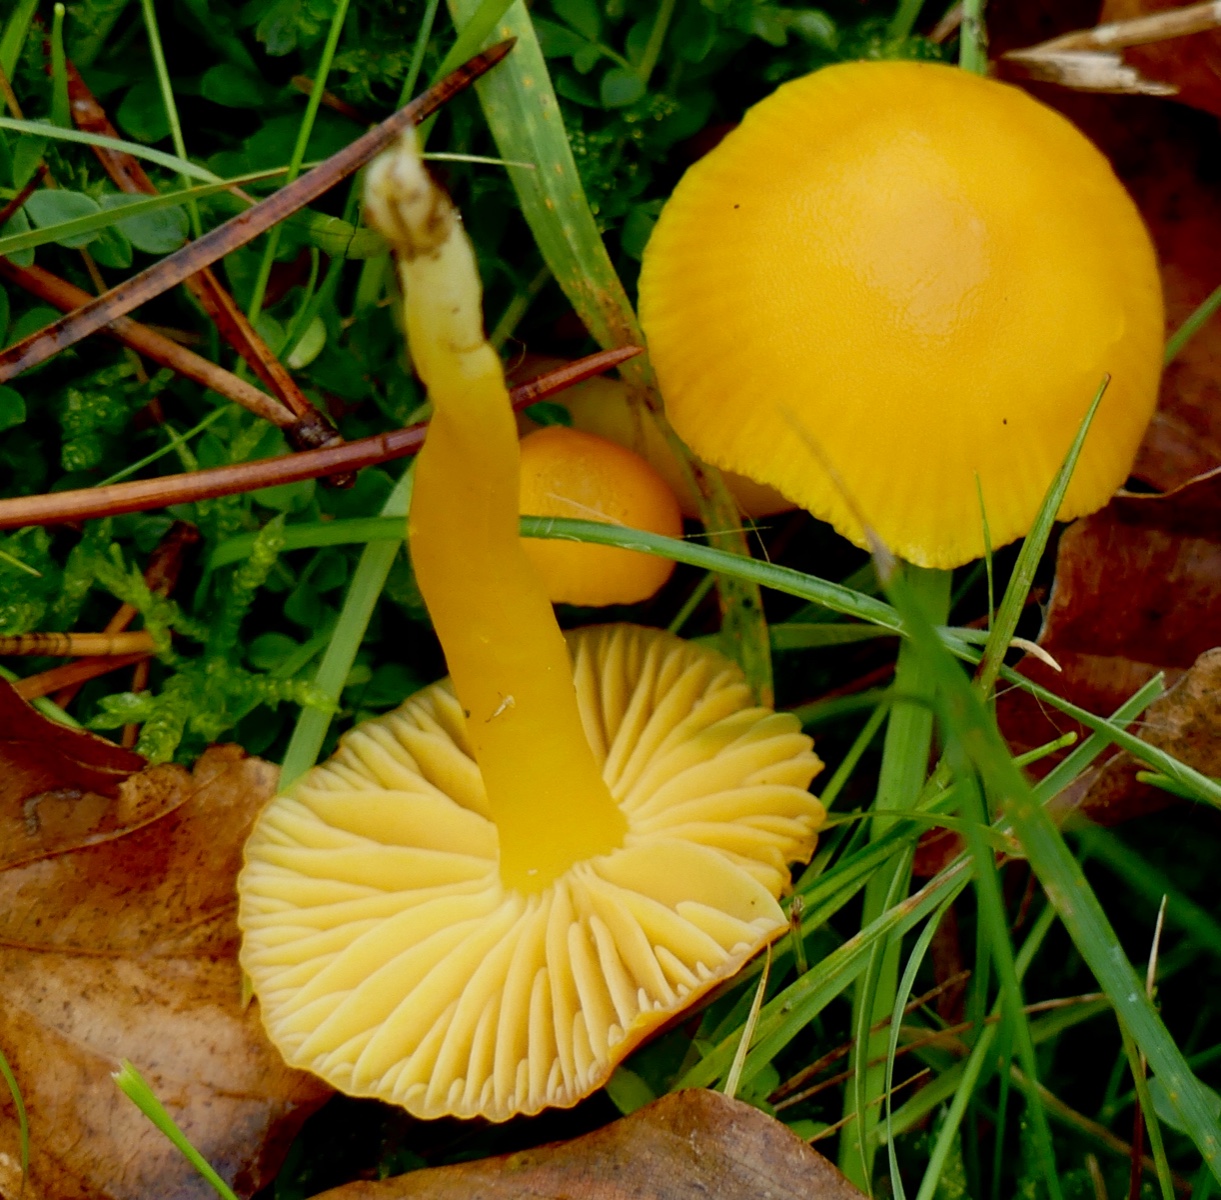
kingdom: Fungi
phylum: Basidiomycota
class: Agaricomycetes
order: Agaricales
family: Hygrophoraceae
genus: Hygrocybe
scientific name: Hygrocybe ceracea
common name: voksgul vokshat
